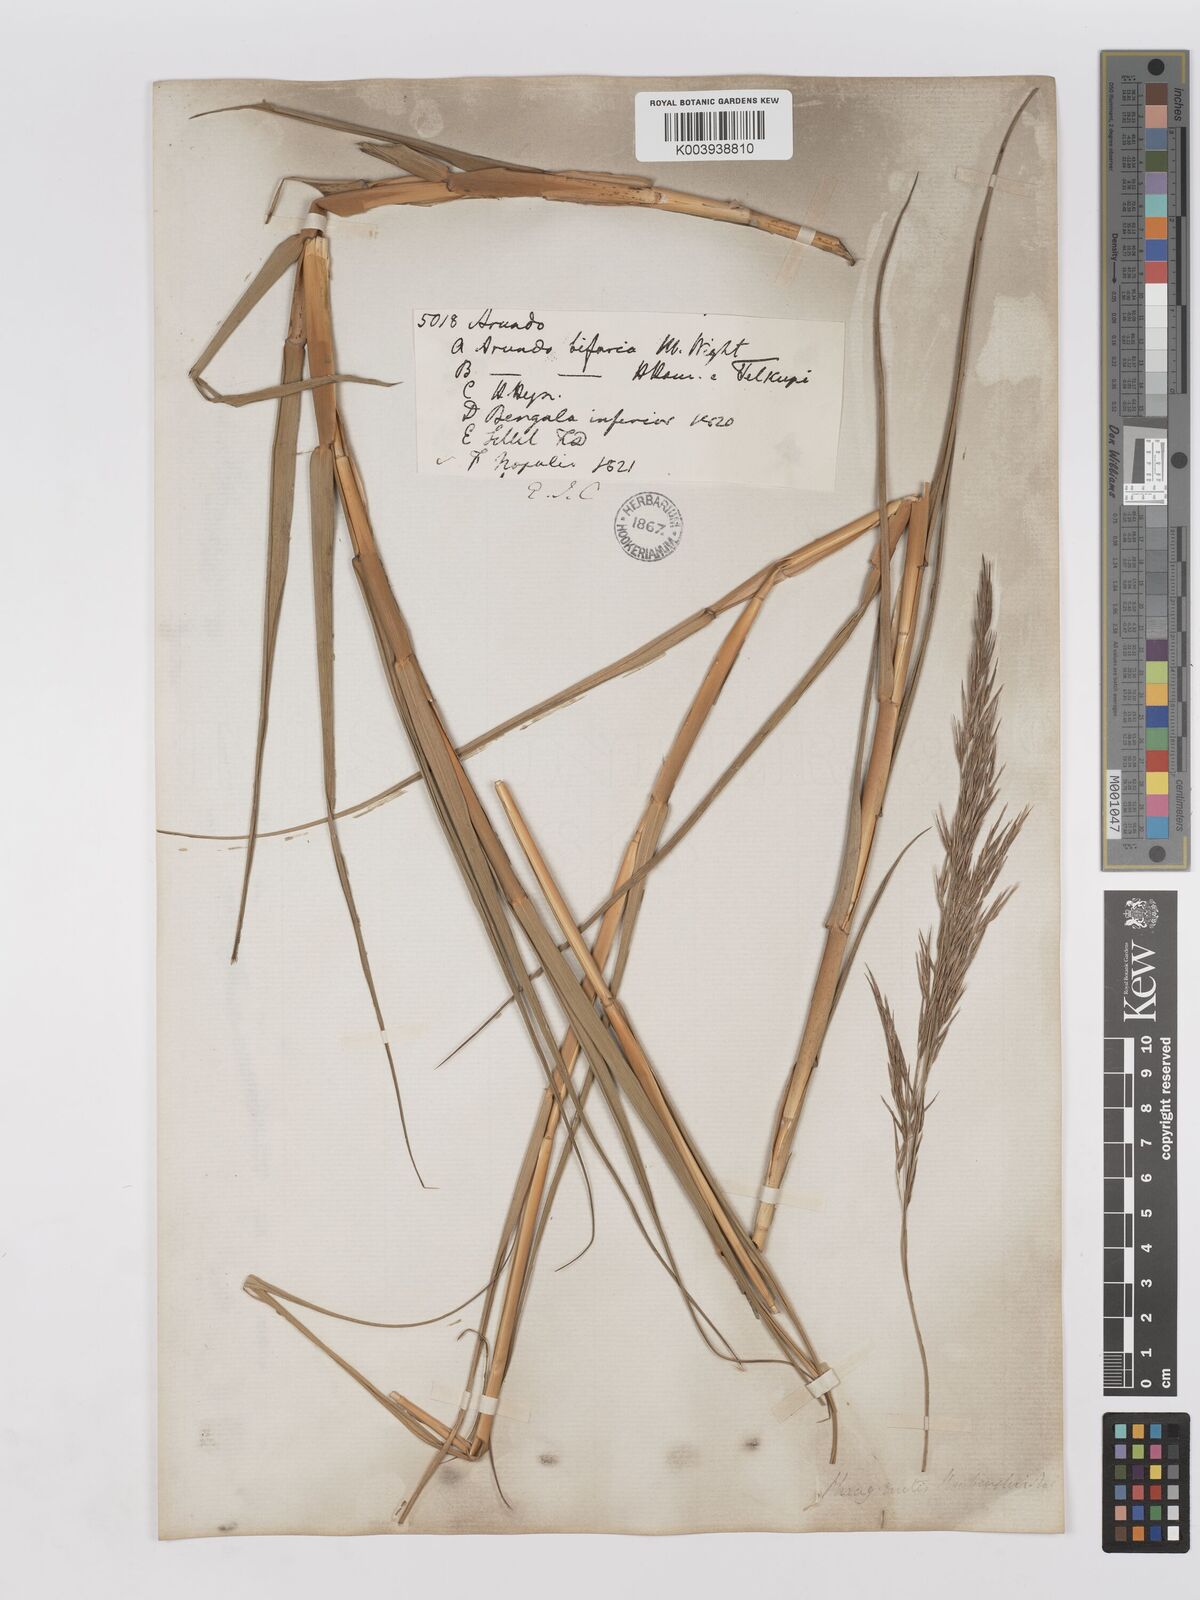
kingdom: Plantae
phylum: Tracheophyta
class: Liliopsida
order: Poales
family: Poaceae
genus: Phragmites
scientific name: Phragmites karka
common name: Tropical reed
